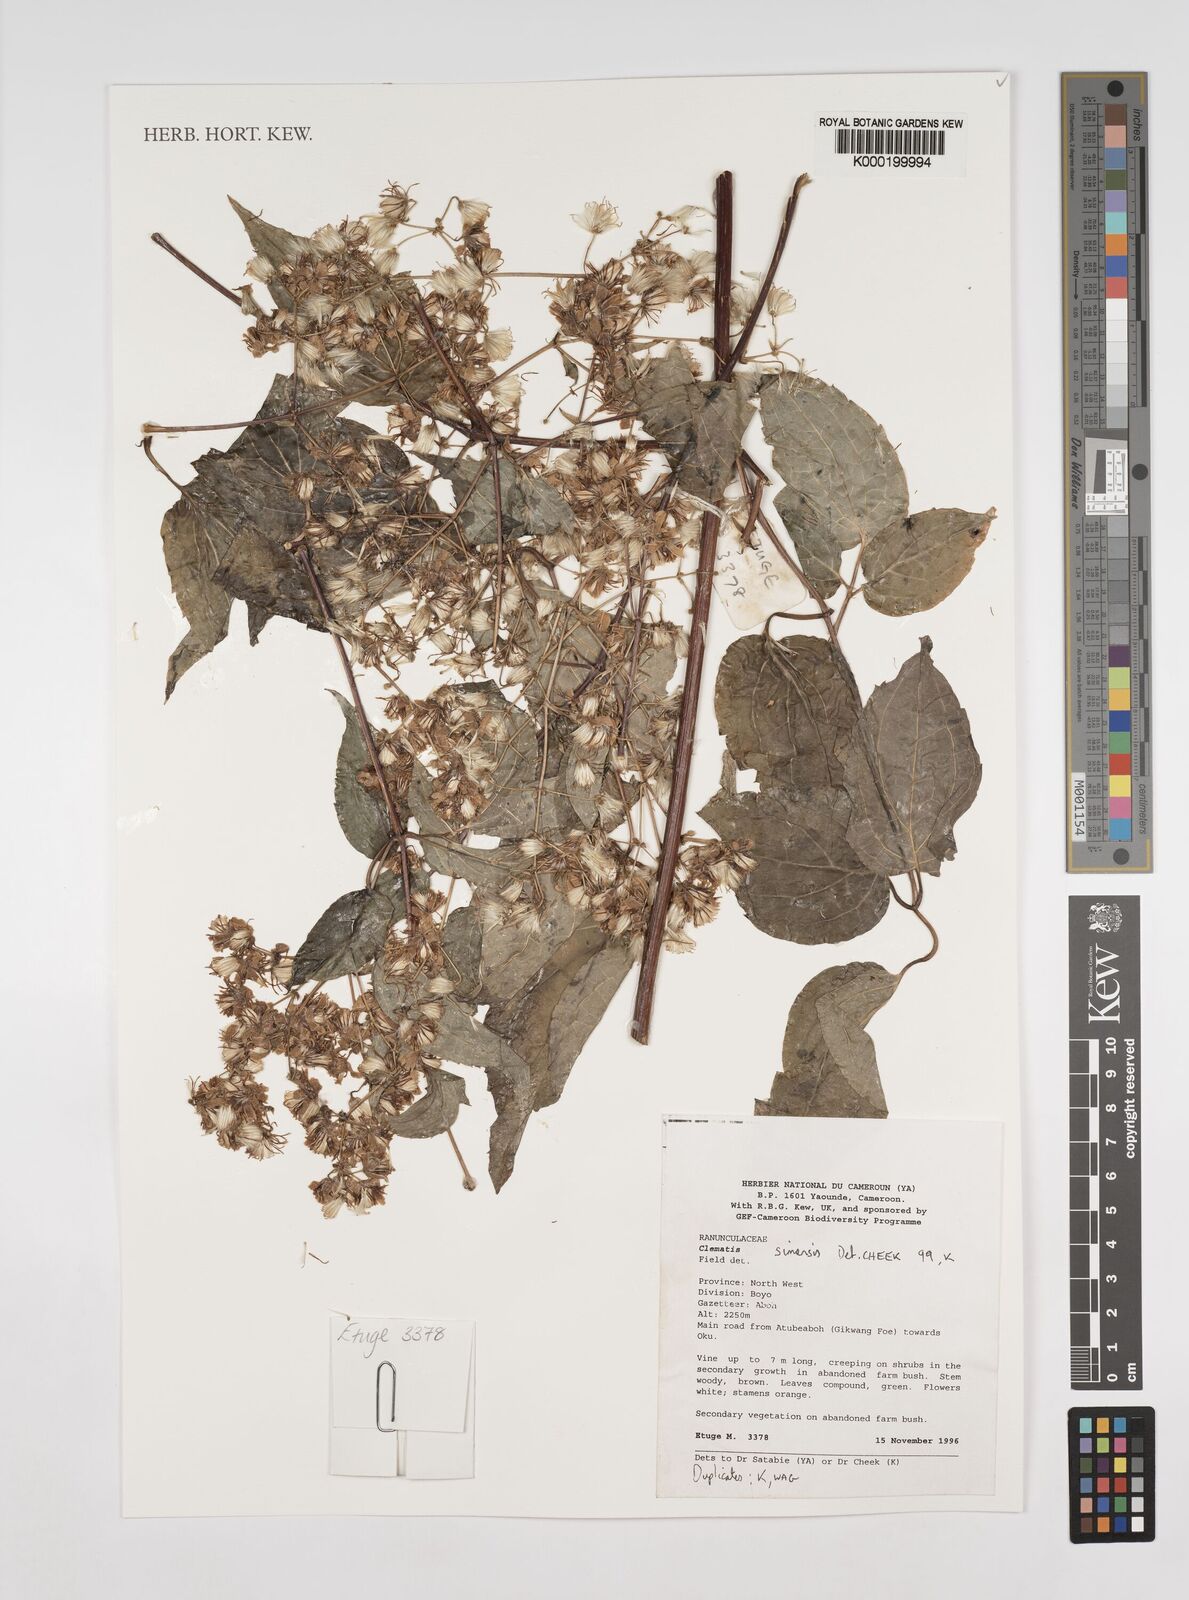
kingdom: Plantae
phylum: Tracheophyta
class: Magnoliopsida
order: Ranunculales
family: Ranunculaceae
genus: Clematis
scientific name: Clematis simensis
